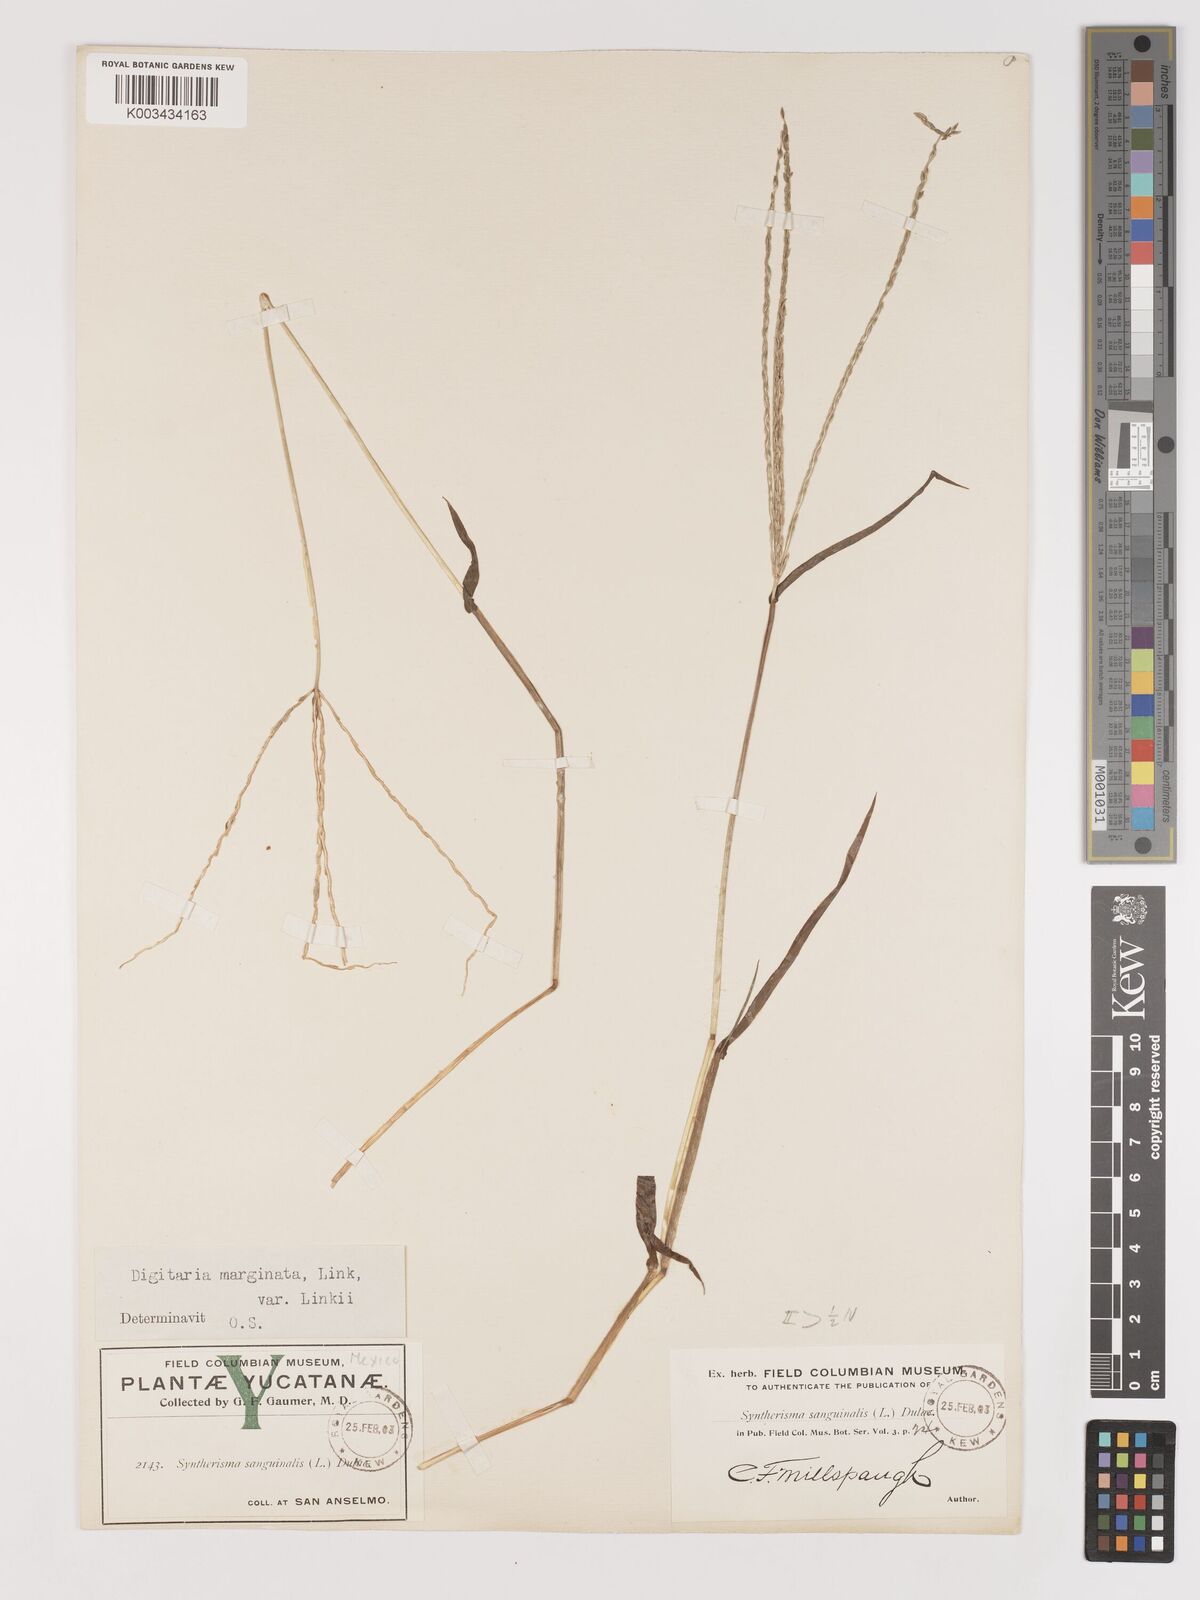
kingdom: Plantae
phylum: Tracheophyta
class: Liliopsida
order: Poales
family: Poaceae
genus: Digitaria
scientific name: Digitaria ciliaris
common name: Tropical finger-grass
